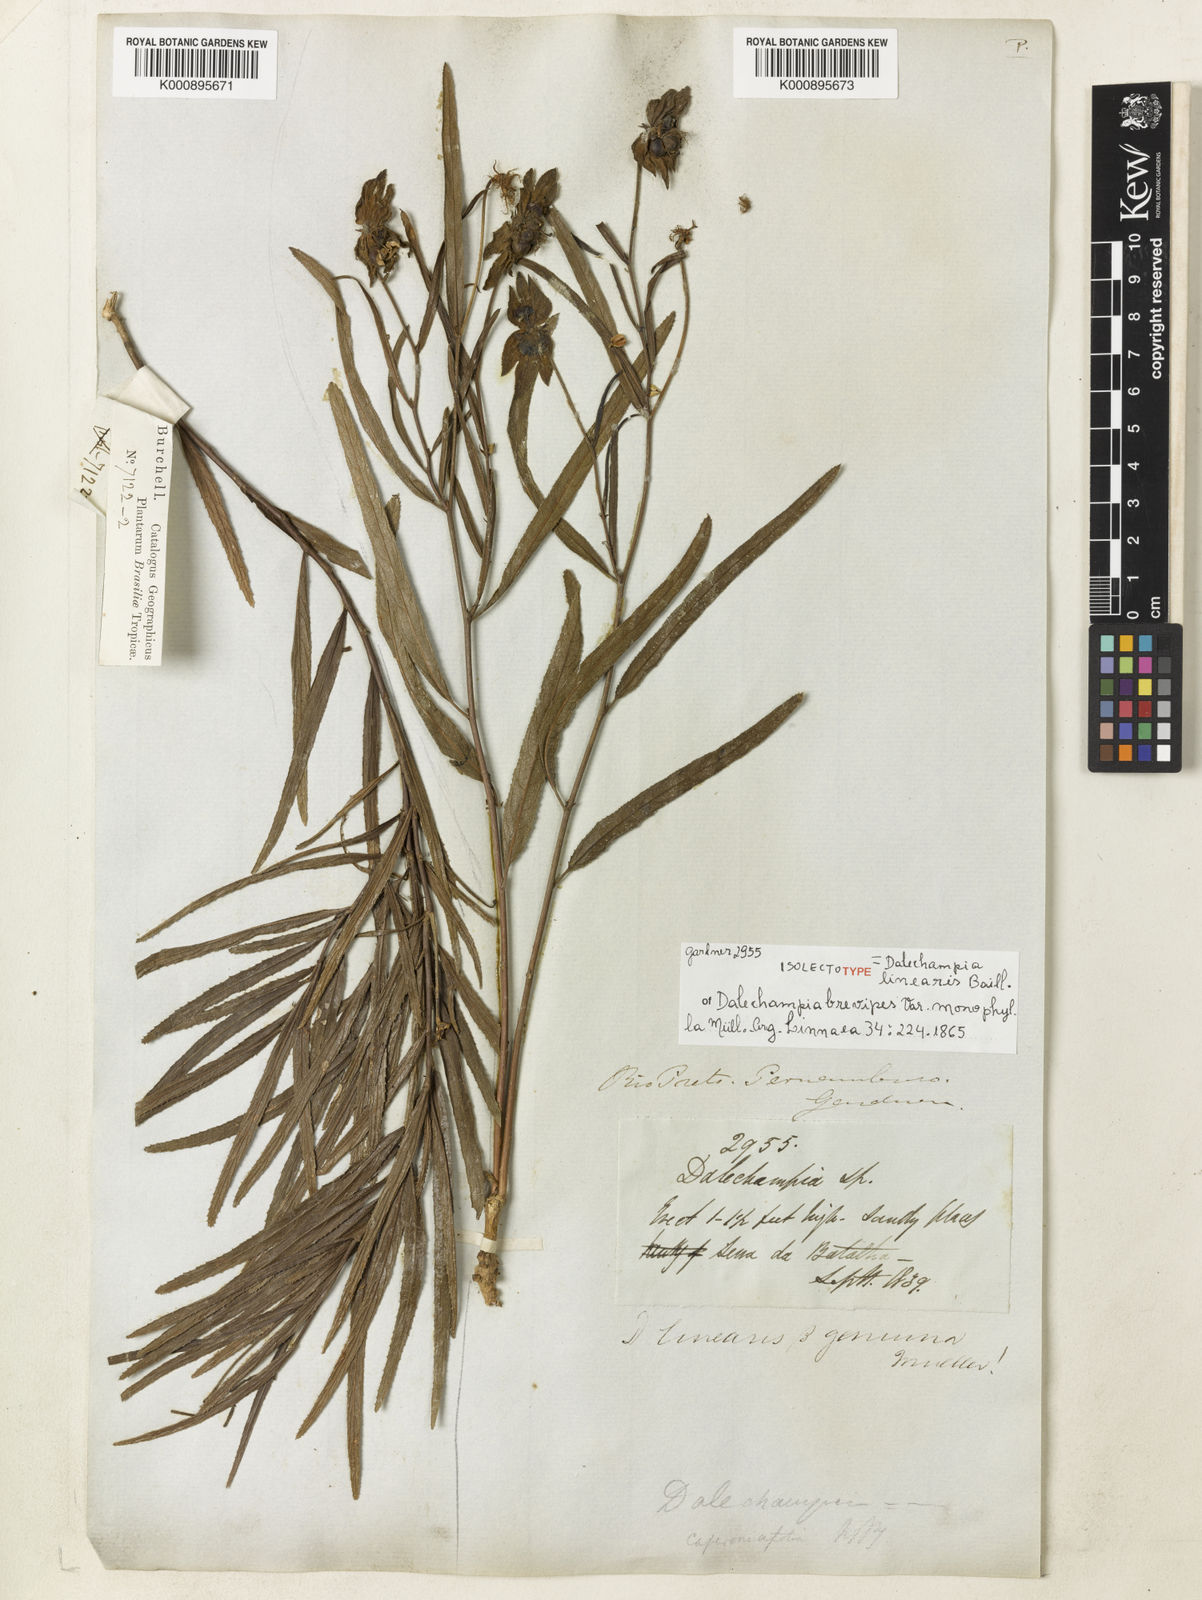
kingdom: Plantae
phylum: Tracheophyta
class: Magnoliopsida
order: Malpighiales
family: Euphorbiaceae
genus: Dalechampia
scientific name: Dalechampia linearis
